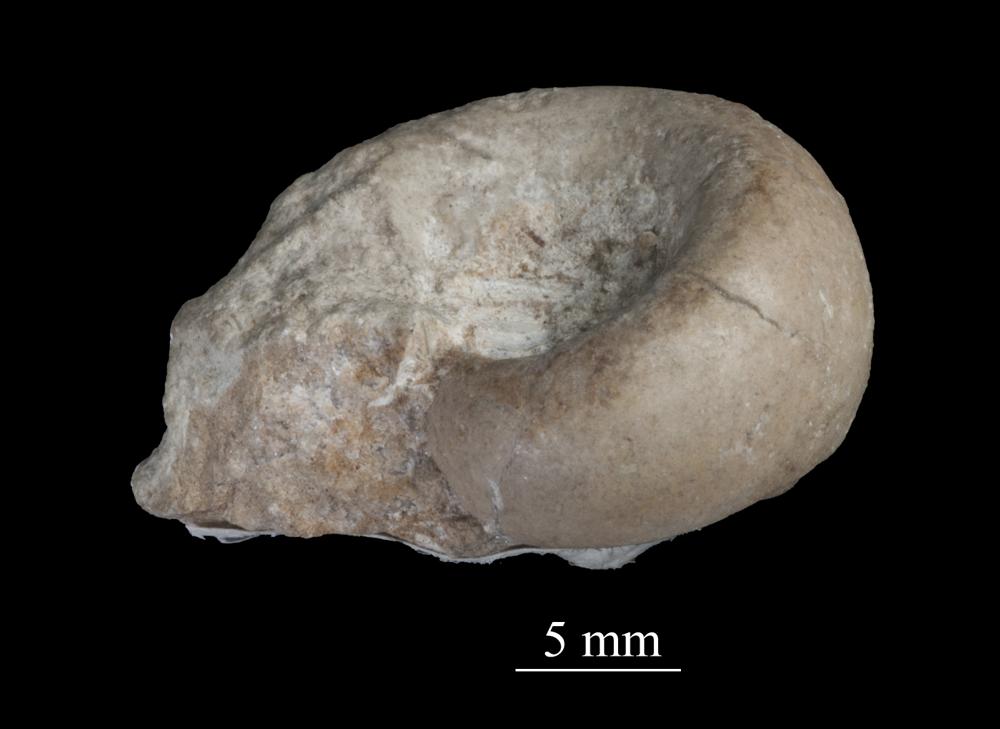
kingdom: Animalia
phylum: Mollusca
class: Gastropoda
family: Lesueurillidae
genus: Pararaphistoma
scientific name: Pararaphistoma Raphistoma scalare
